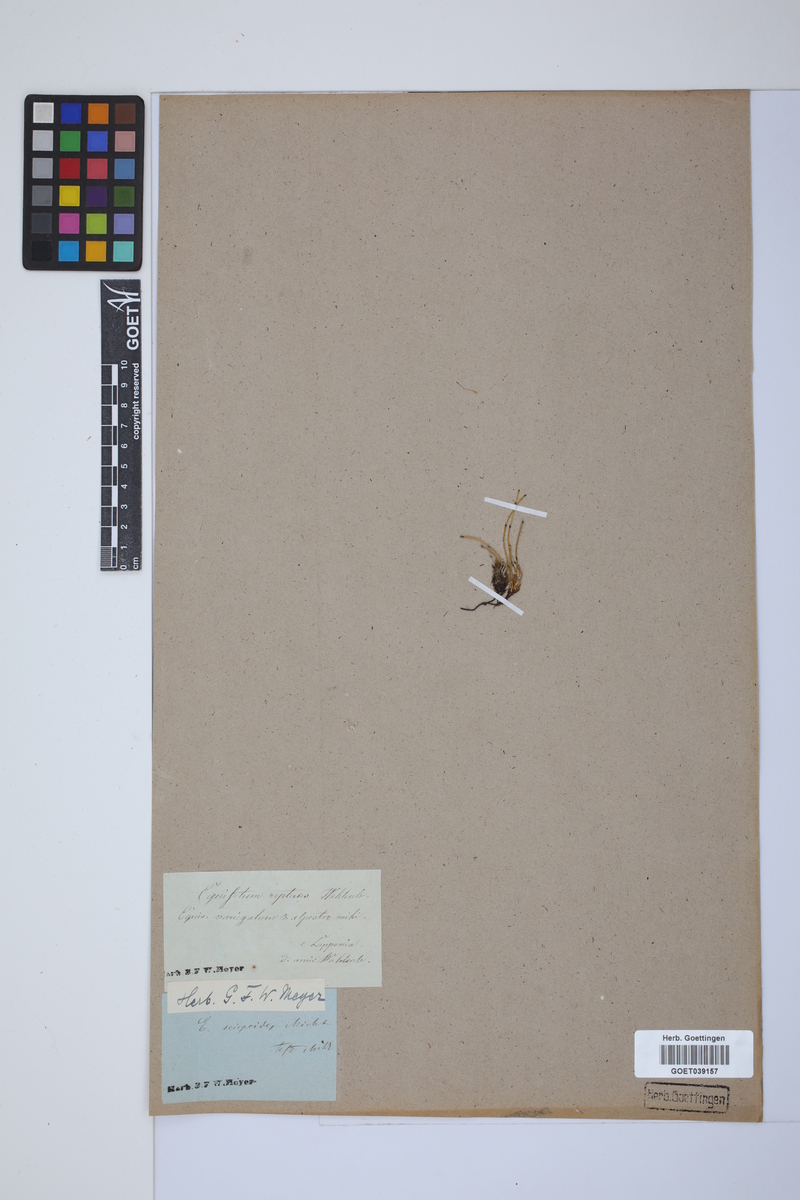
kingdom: Plantae
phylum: Tracheophyta
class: Polypodiopsida
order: Equisetales
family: Equisetaceae
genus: Equisetum
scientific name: Equisetum scirpoides
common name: Delicate horsetail
